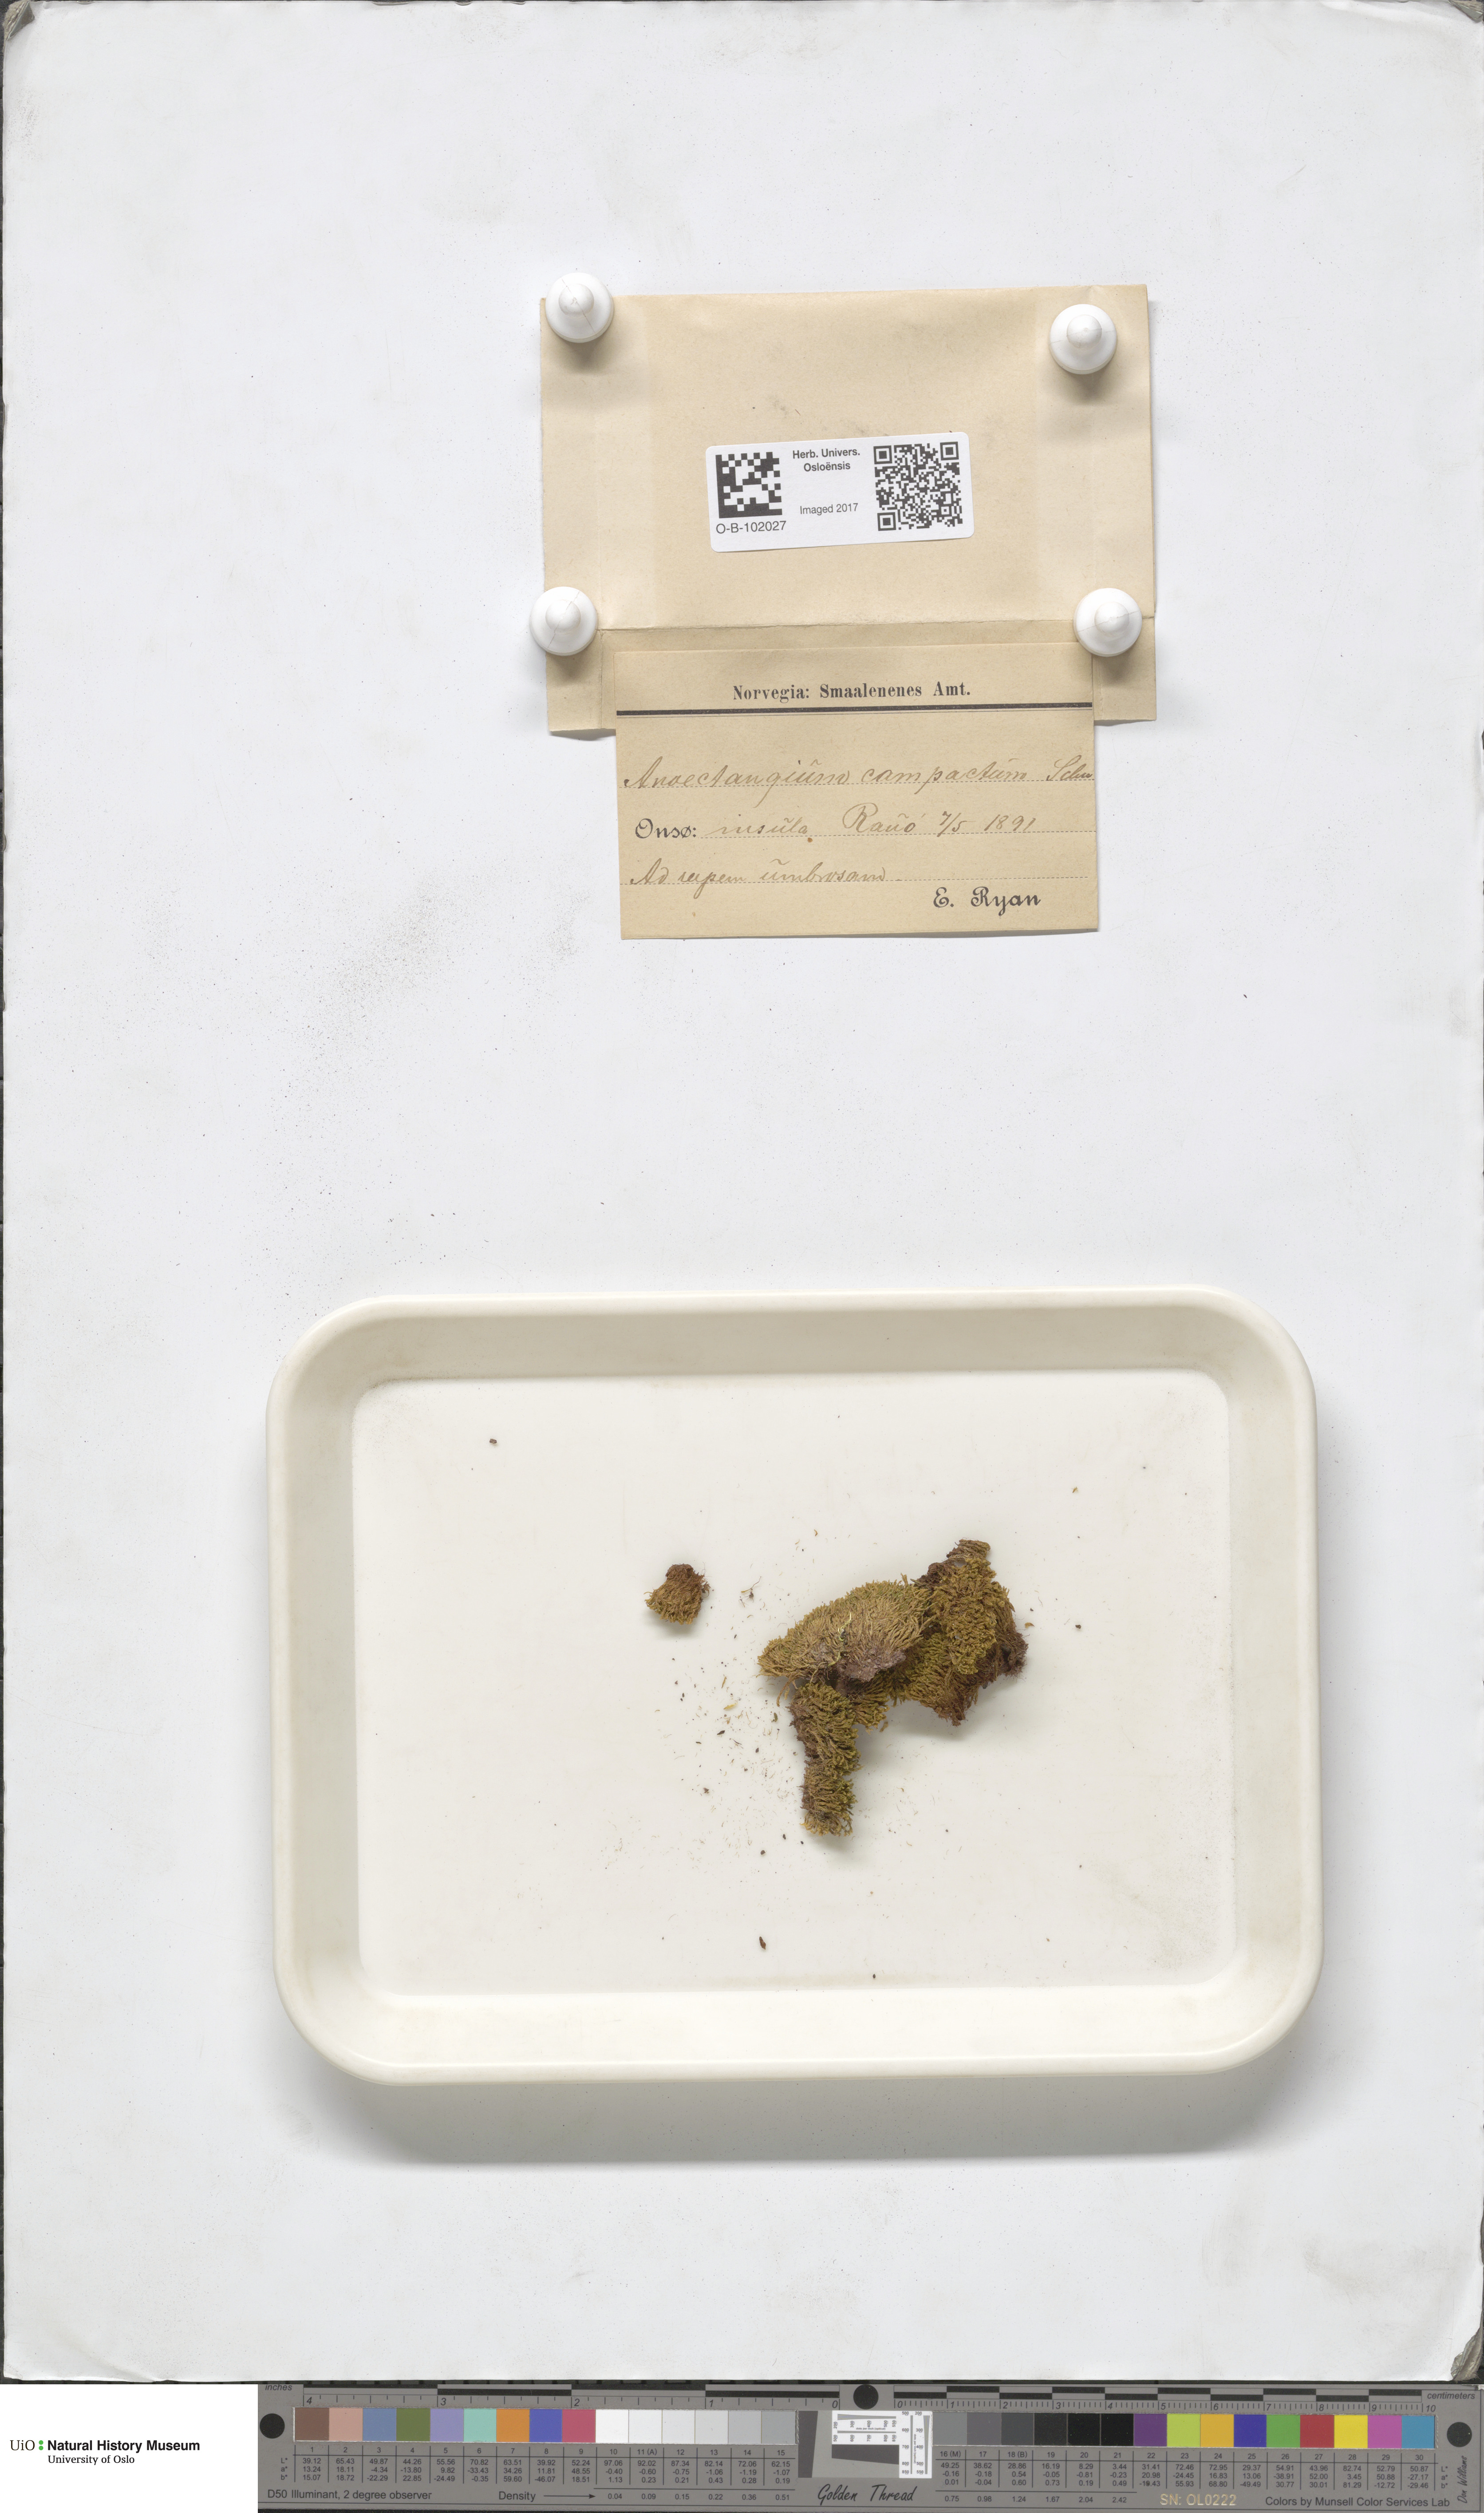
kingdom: Plantae
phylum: Bryophyta
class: Bryopsida
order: Pottiales
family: Pottiaceae
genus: Anoectangium
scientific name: Anoectangium aestivum
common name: Summer-moss
